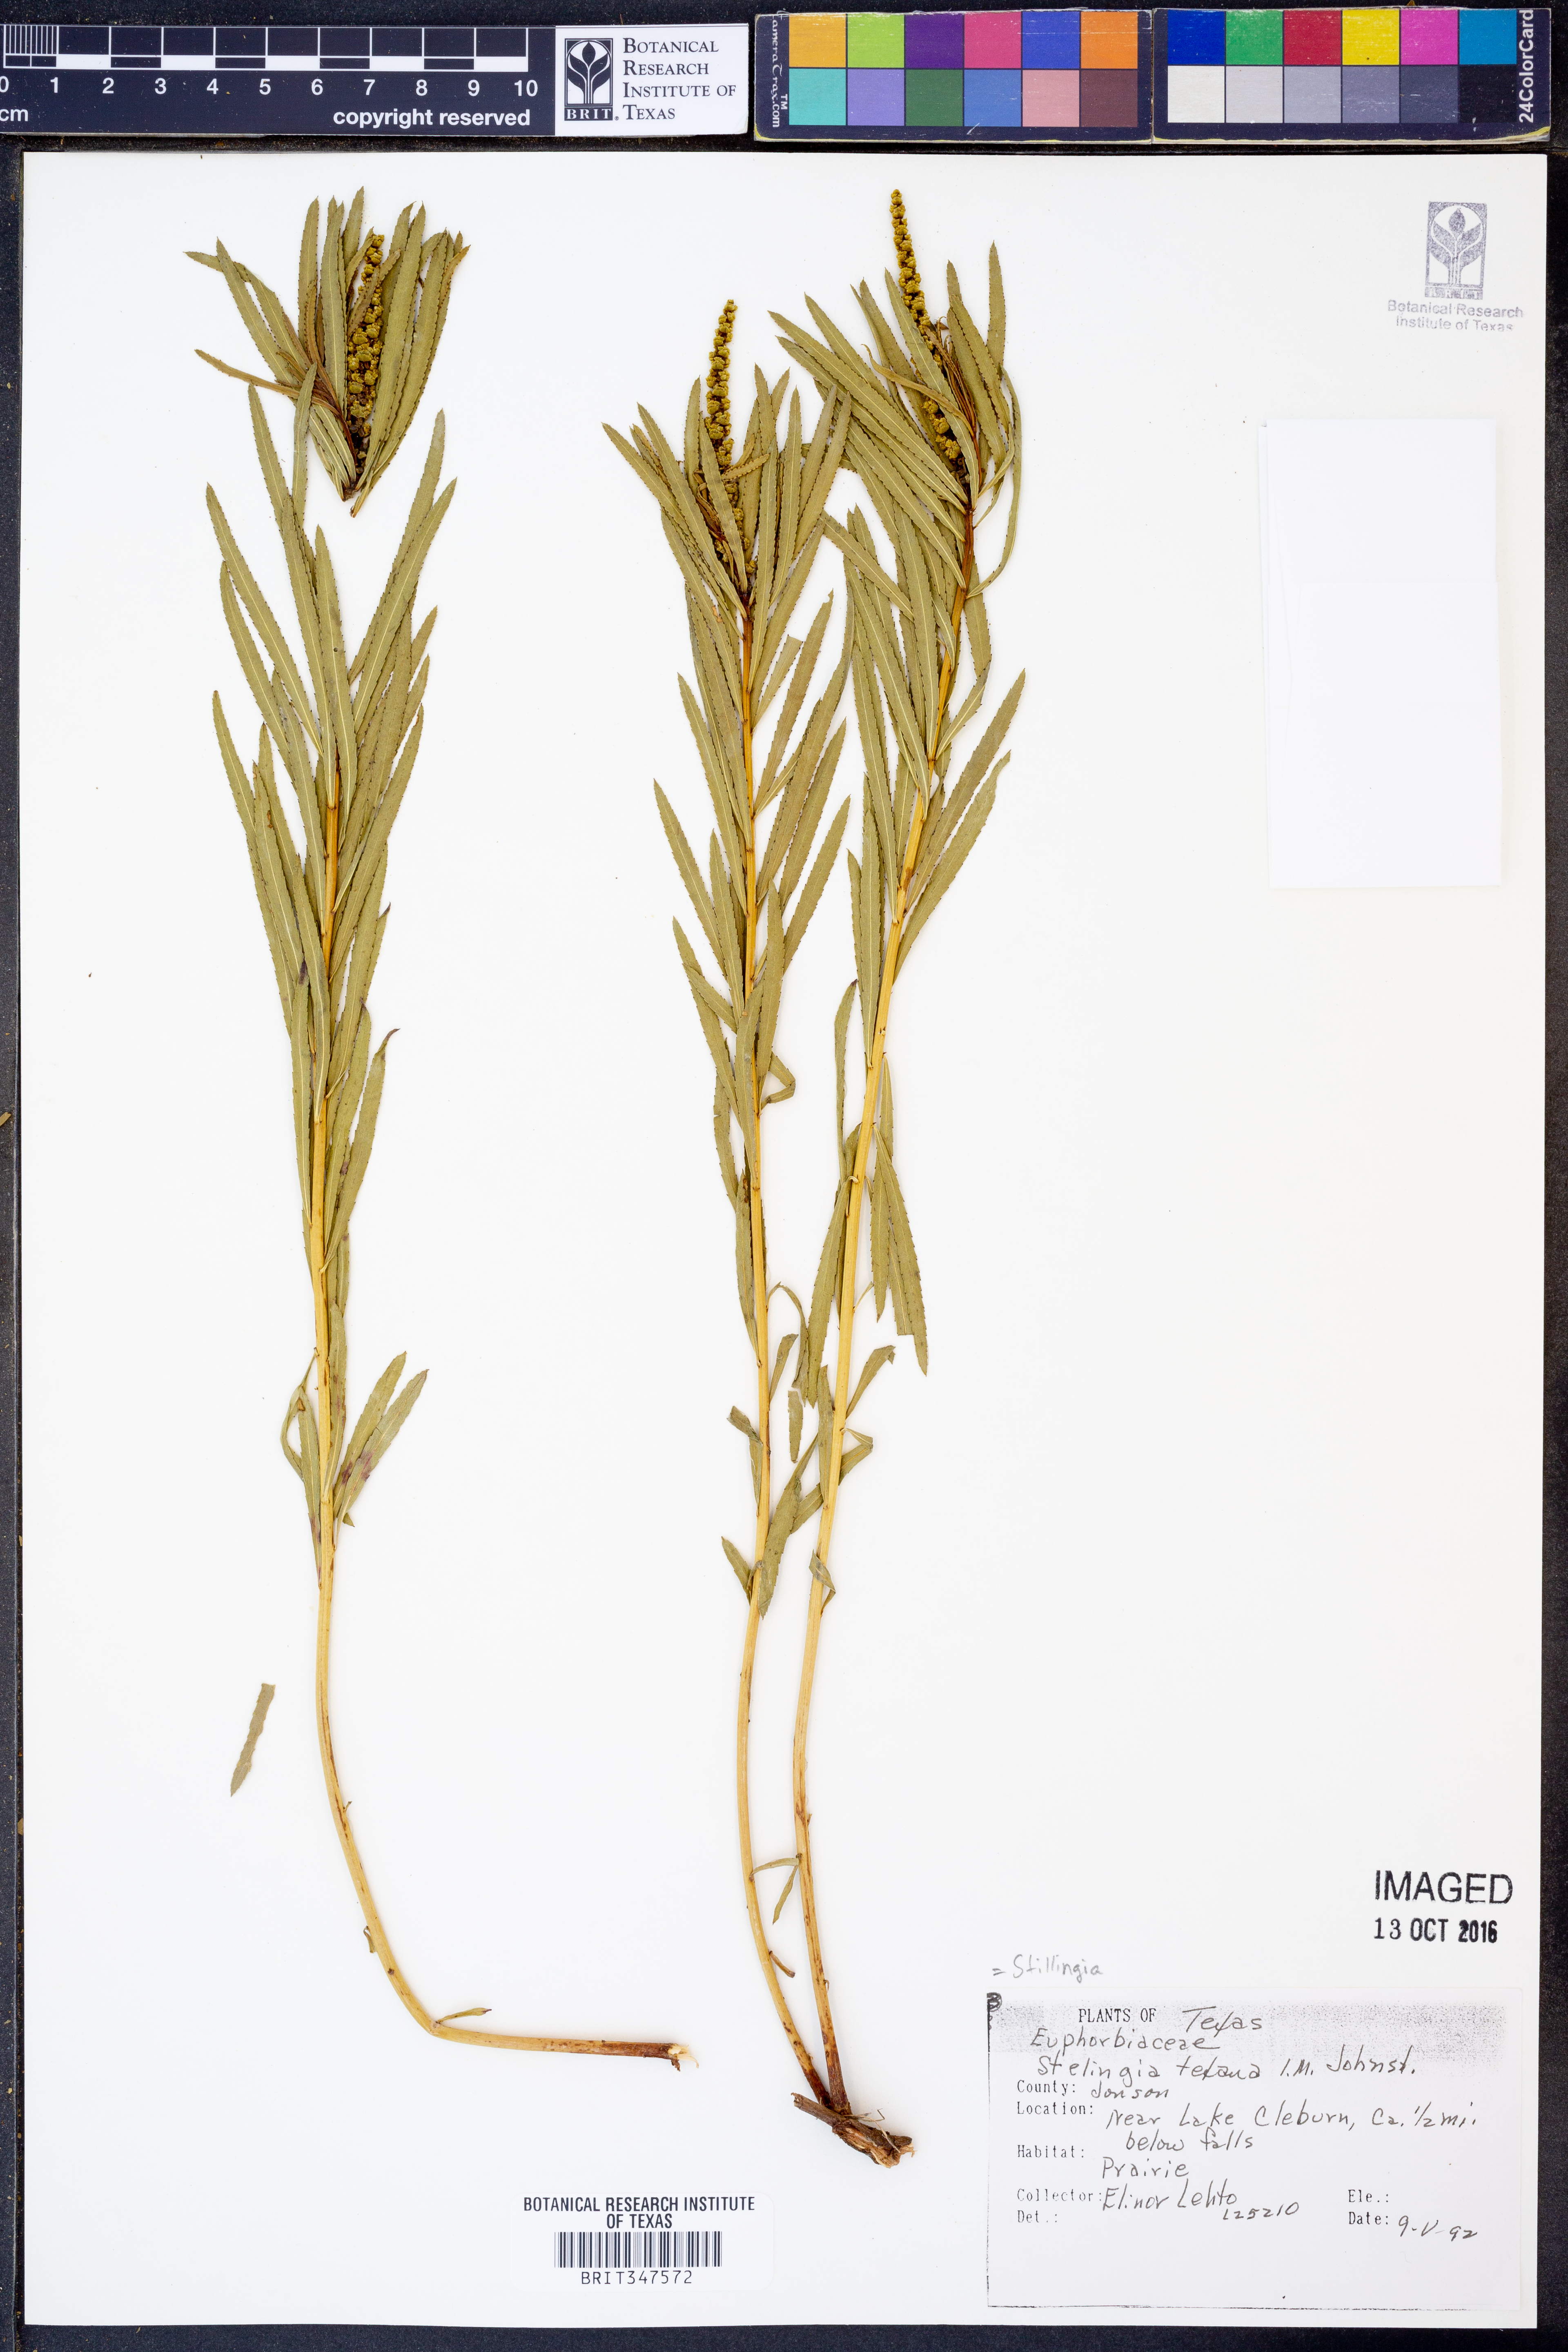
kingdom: Plantae
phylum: Tracheophyta
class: Magnoliopsida
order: Malpighiales
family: Euphorbiaceae
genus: Stillingia
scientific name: Stillingia texana
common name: Texas stillingia
